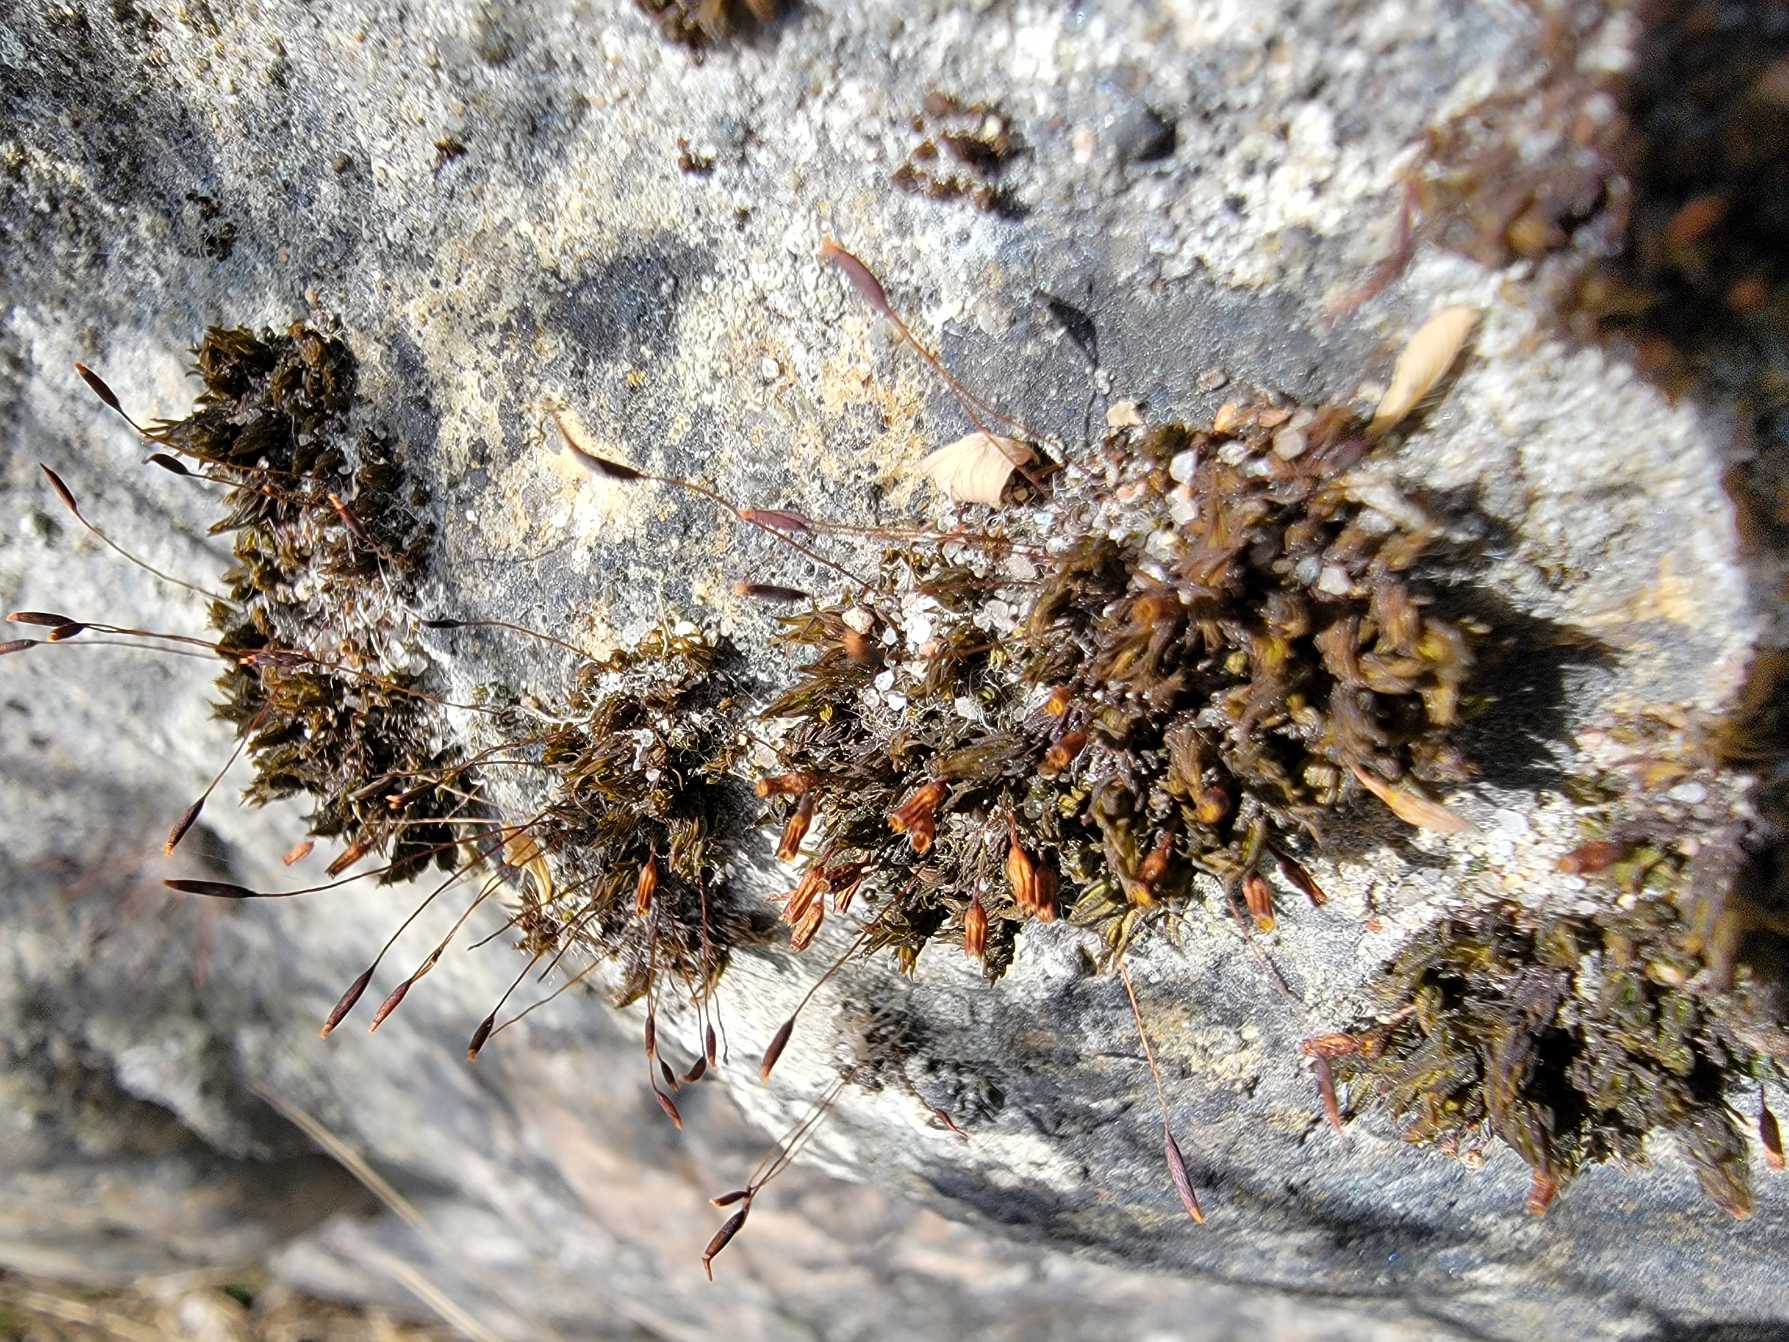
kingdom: Plantae
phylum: Bryophyta
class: Bryopsida
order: Orthotrichales
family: Orthotrichaceae
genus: Orthotrichum
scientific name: Orthotrichum anomalum
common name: Mørk furehætte
